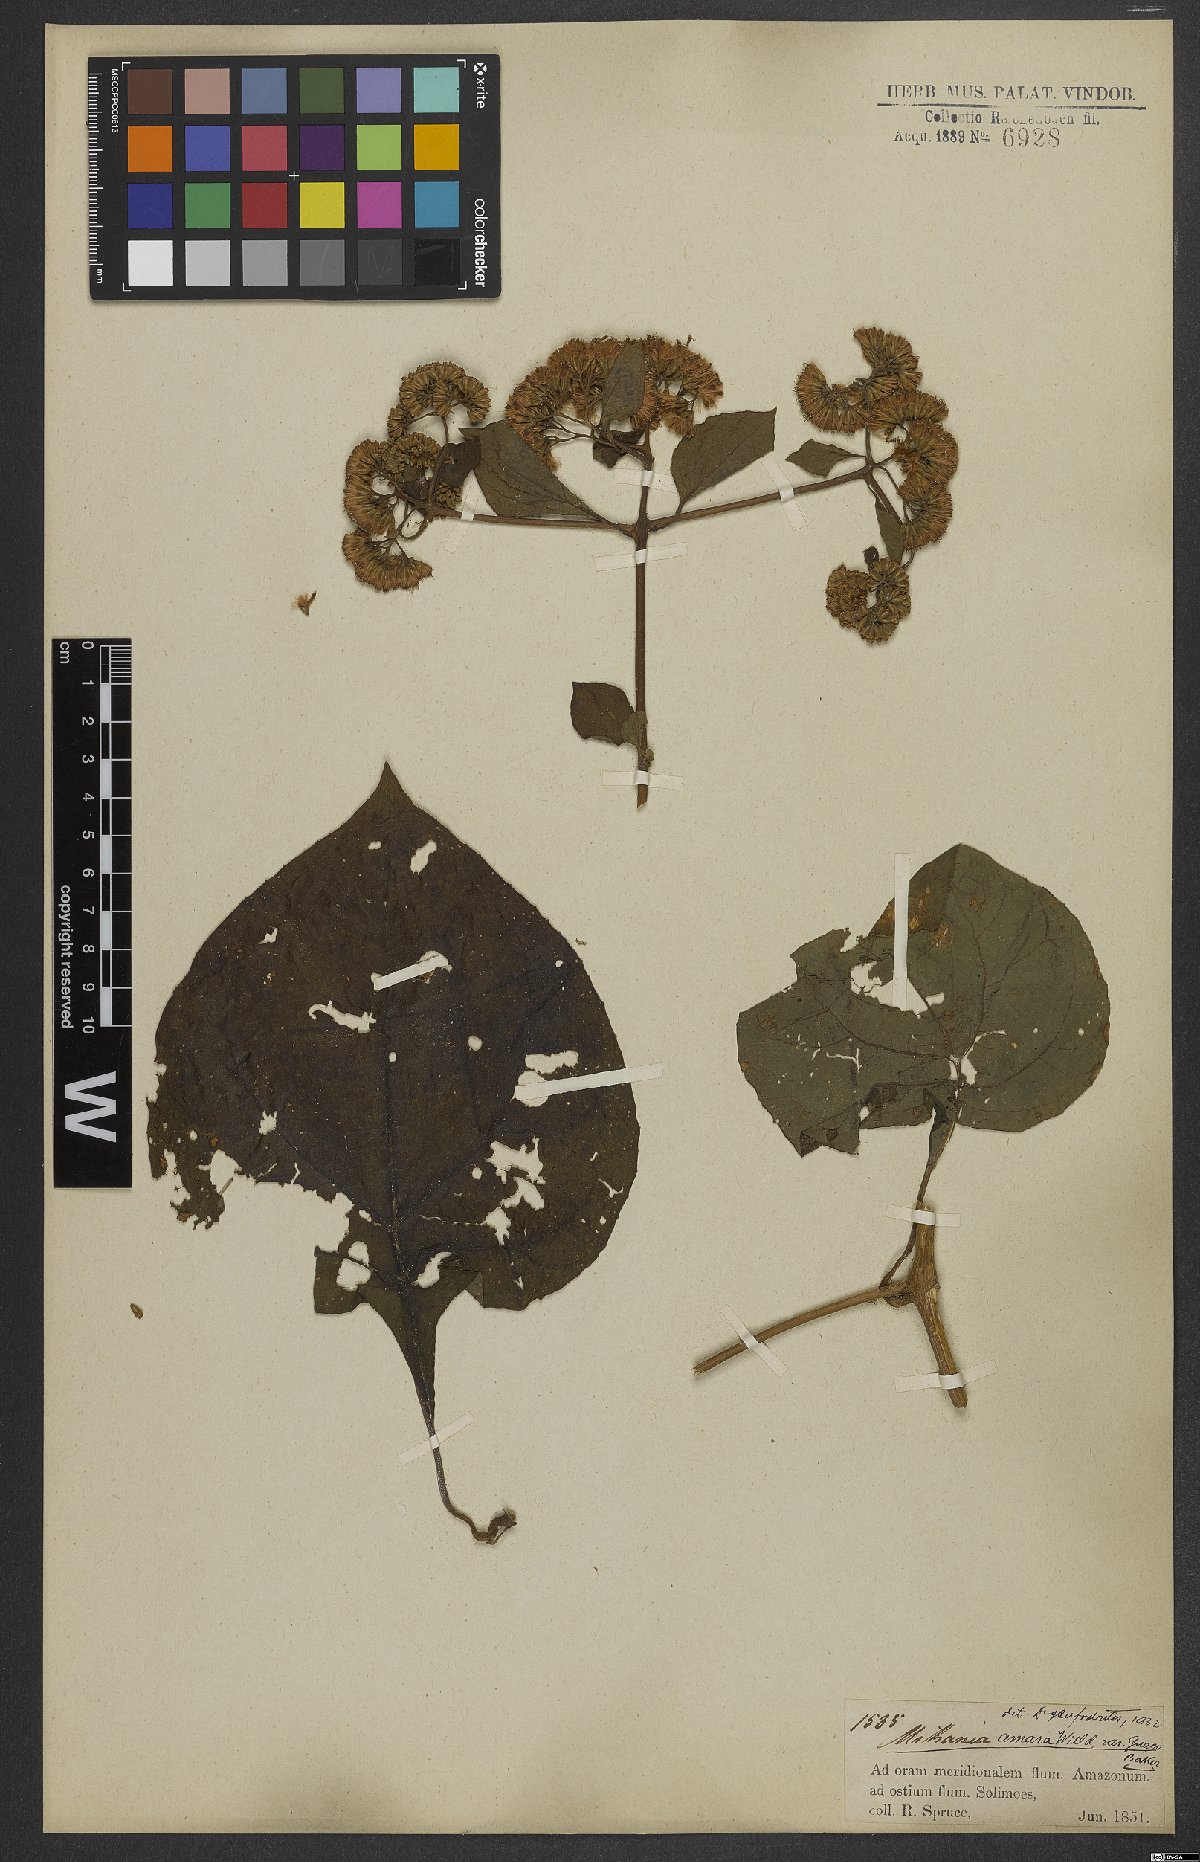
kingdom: Plantae
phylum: Tracheophyta
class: Magnoliopsida
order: Asterales
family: Asteraceae
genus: Mikania
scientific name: Mikania parviflora
